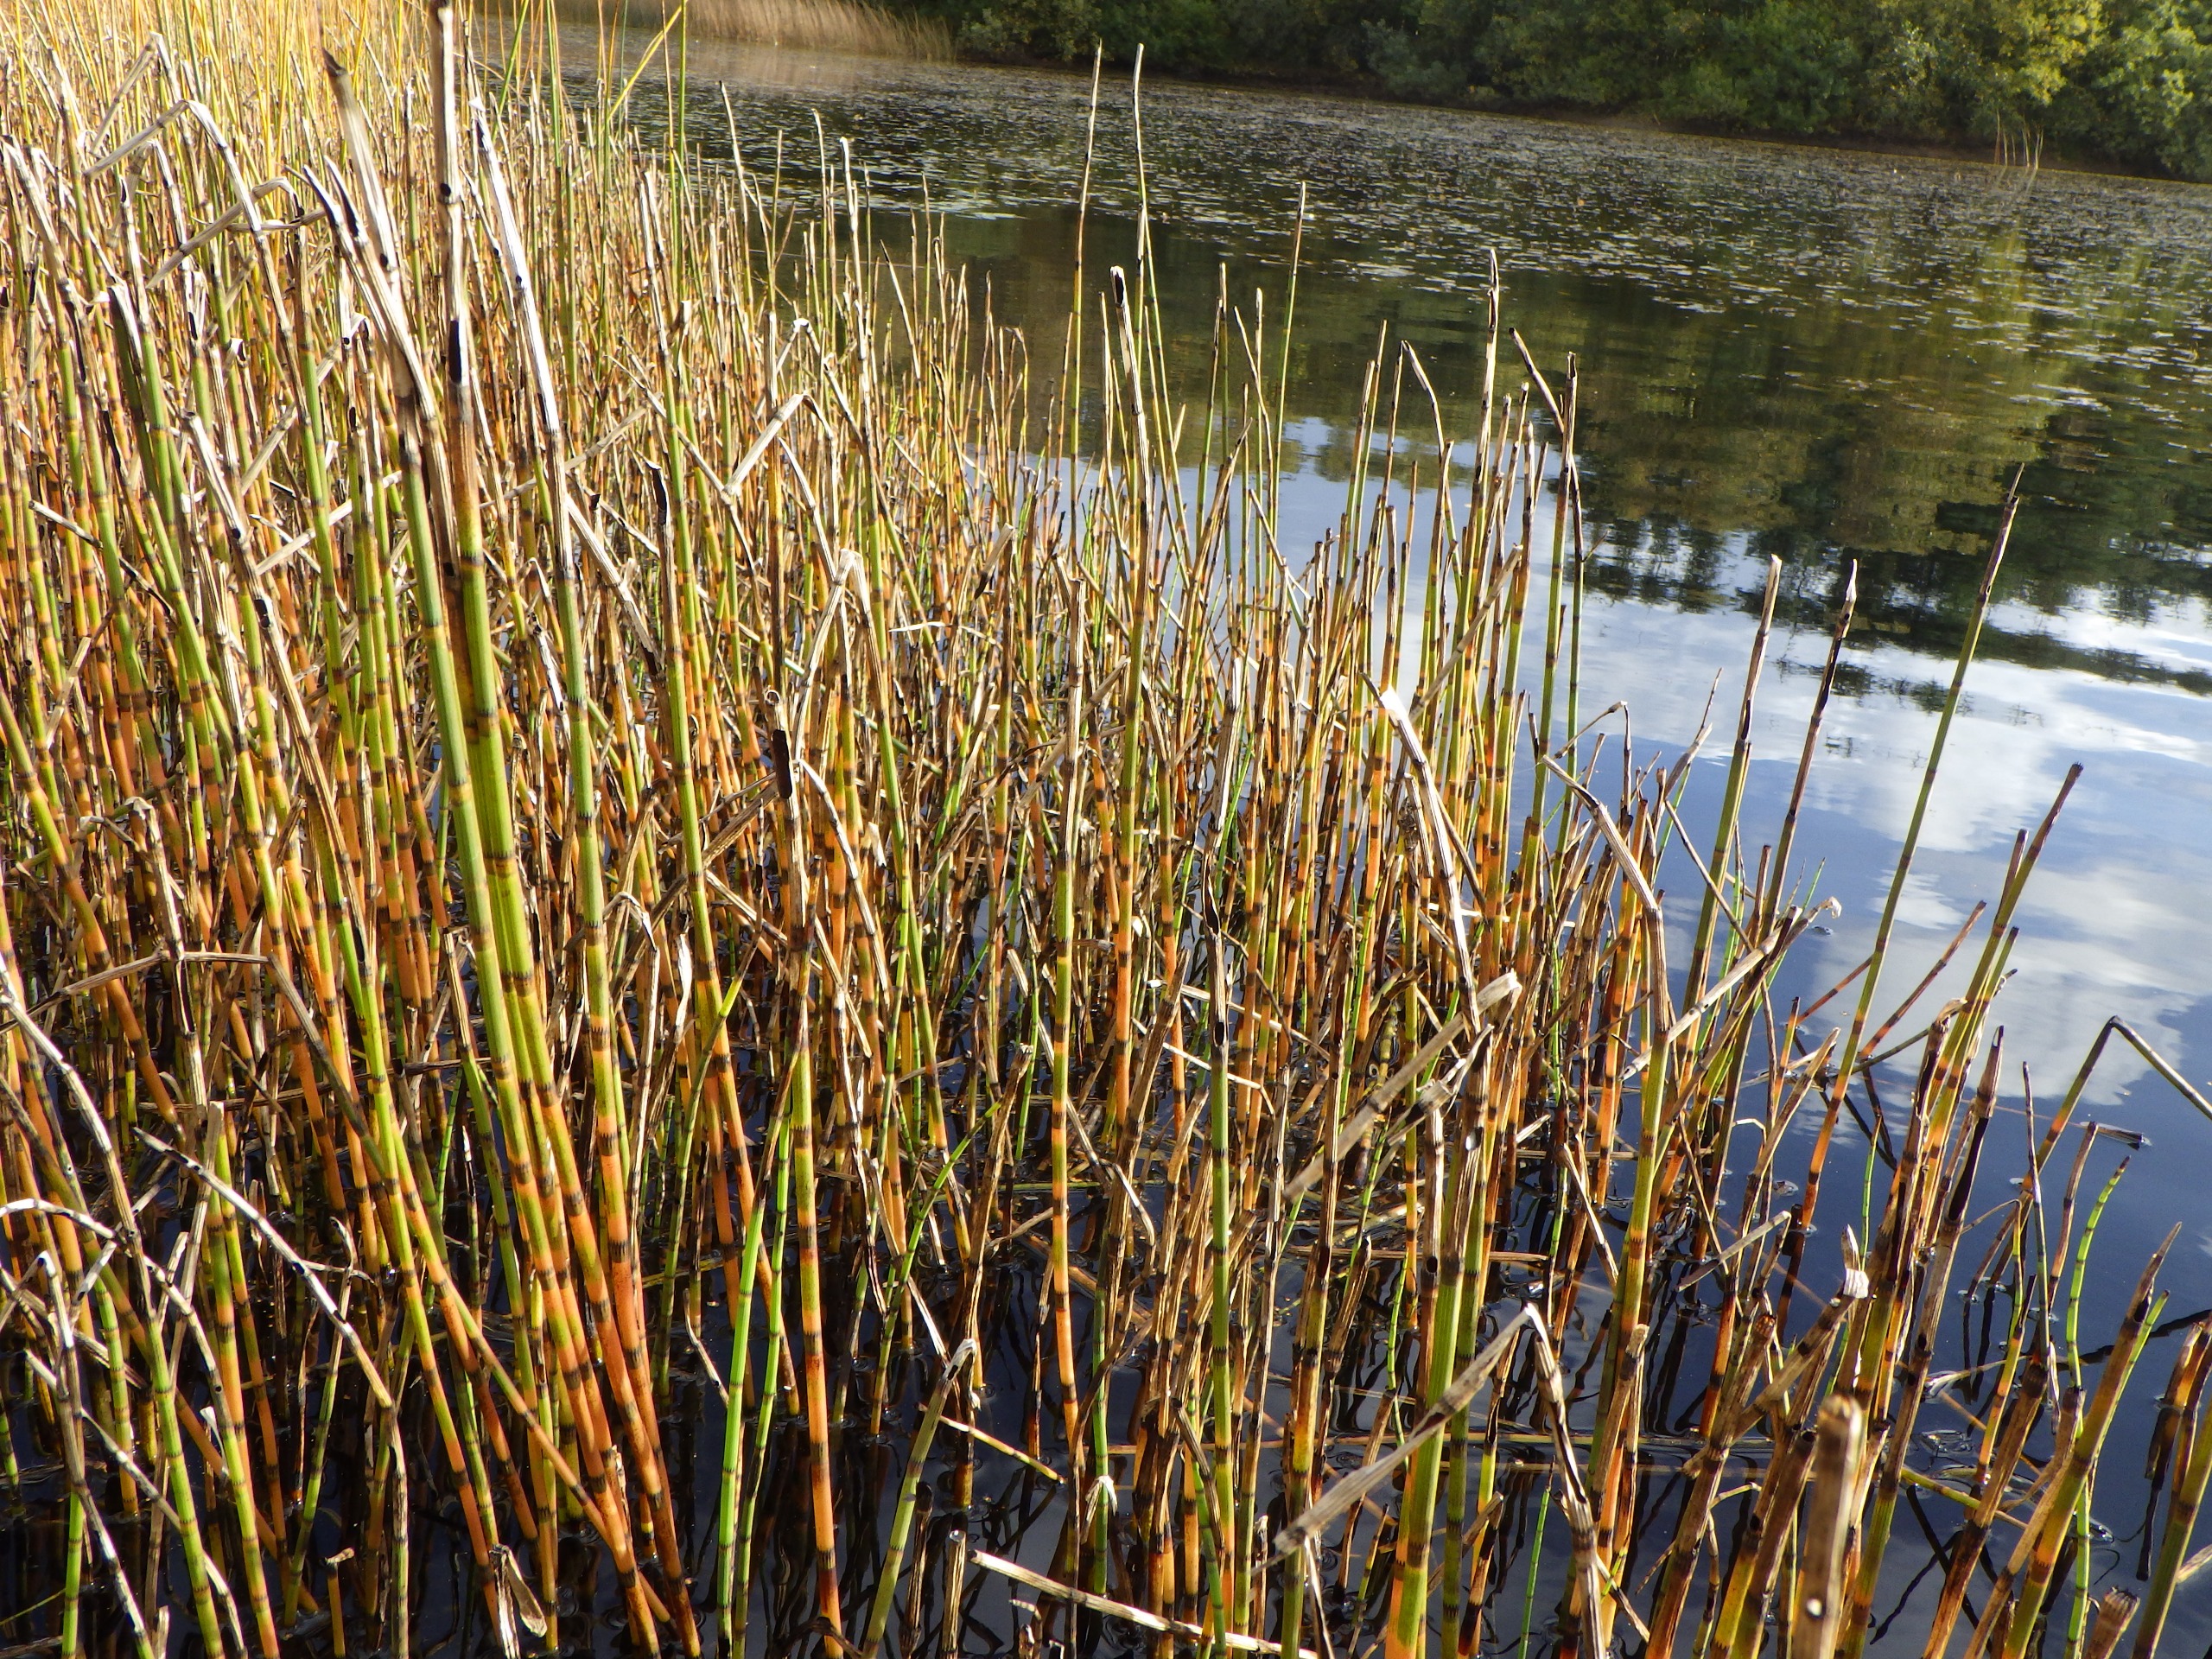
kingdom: Plantae
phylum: Tracheophyta
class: Polypodiopsida
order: Equisetales
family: Equisetaceae
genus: Equisetum
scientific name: Equisetum fluviatile
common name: Dynd-padderok
